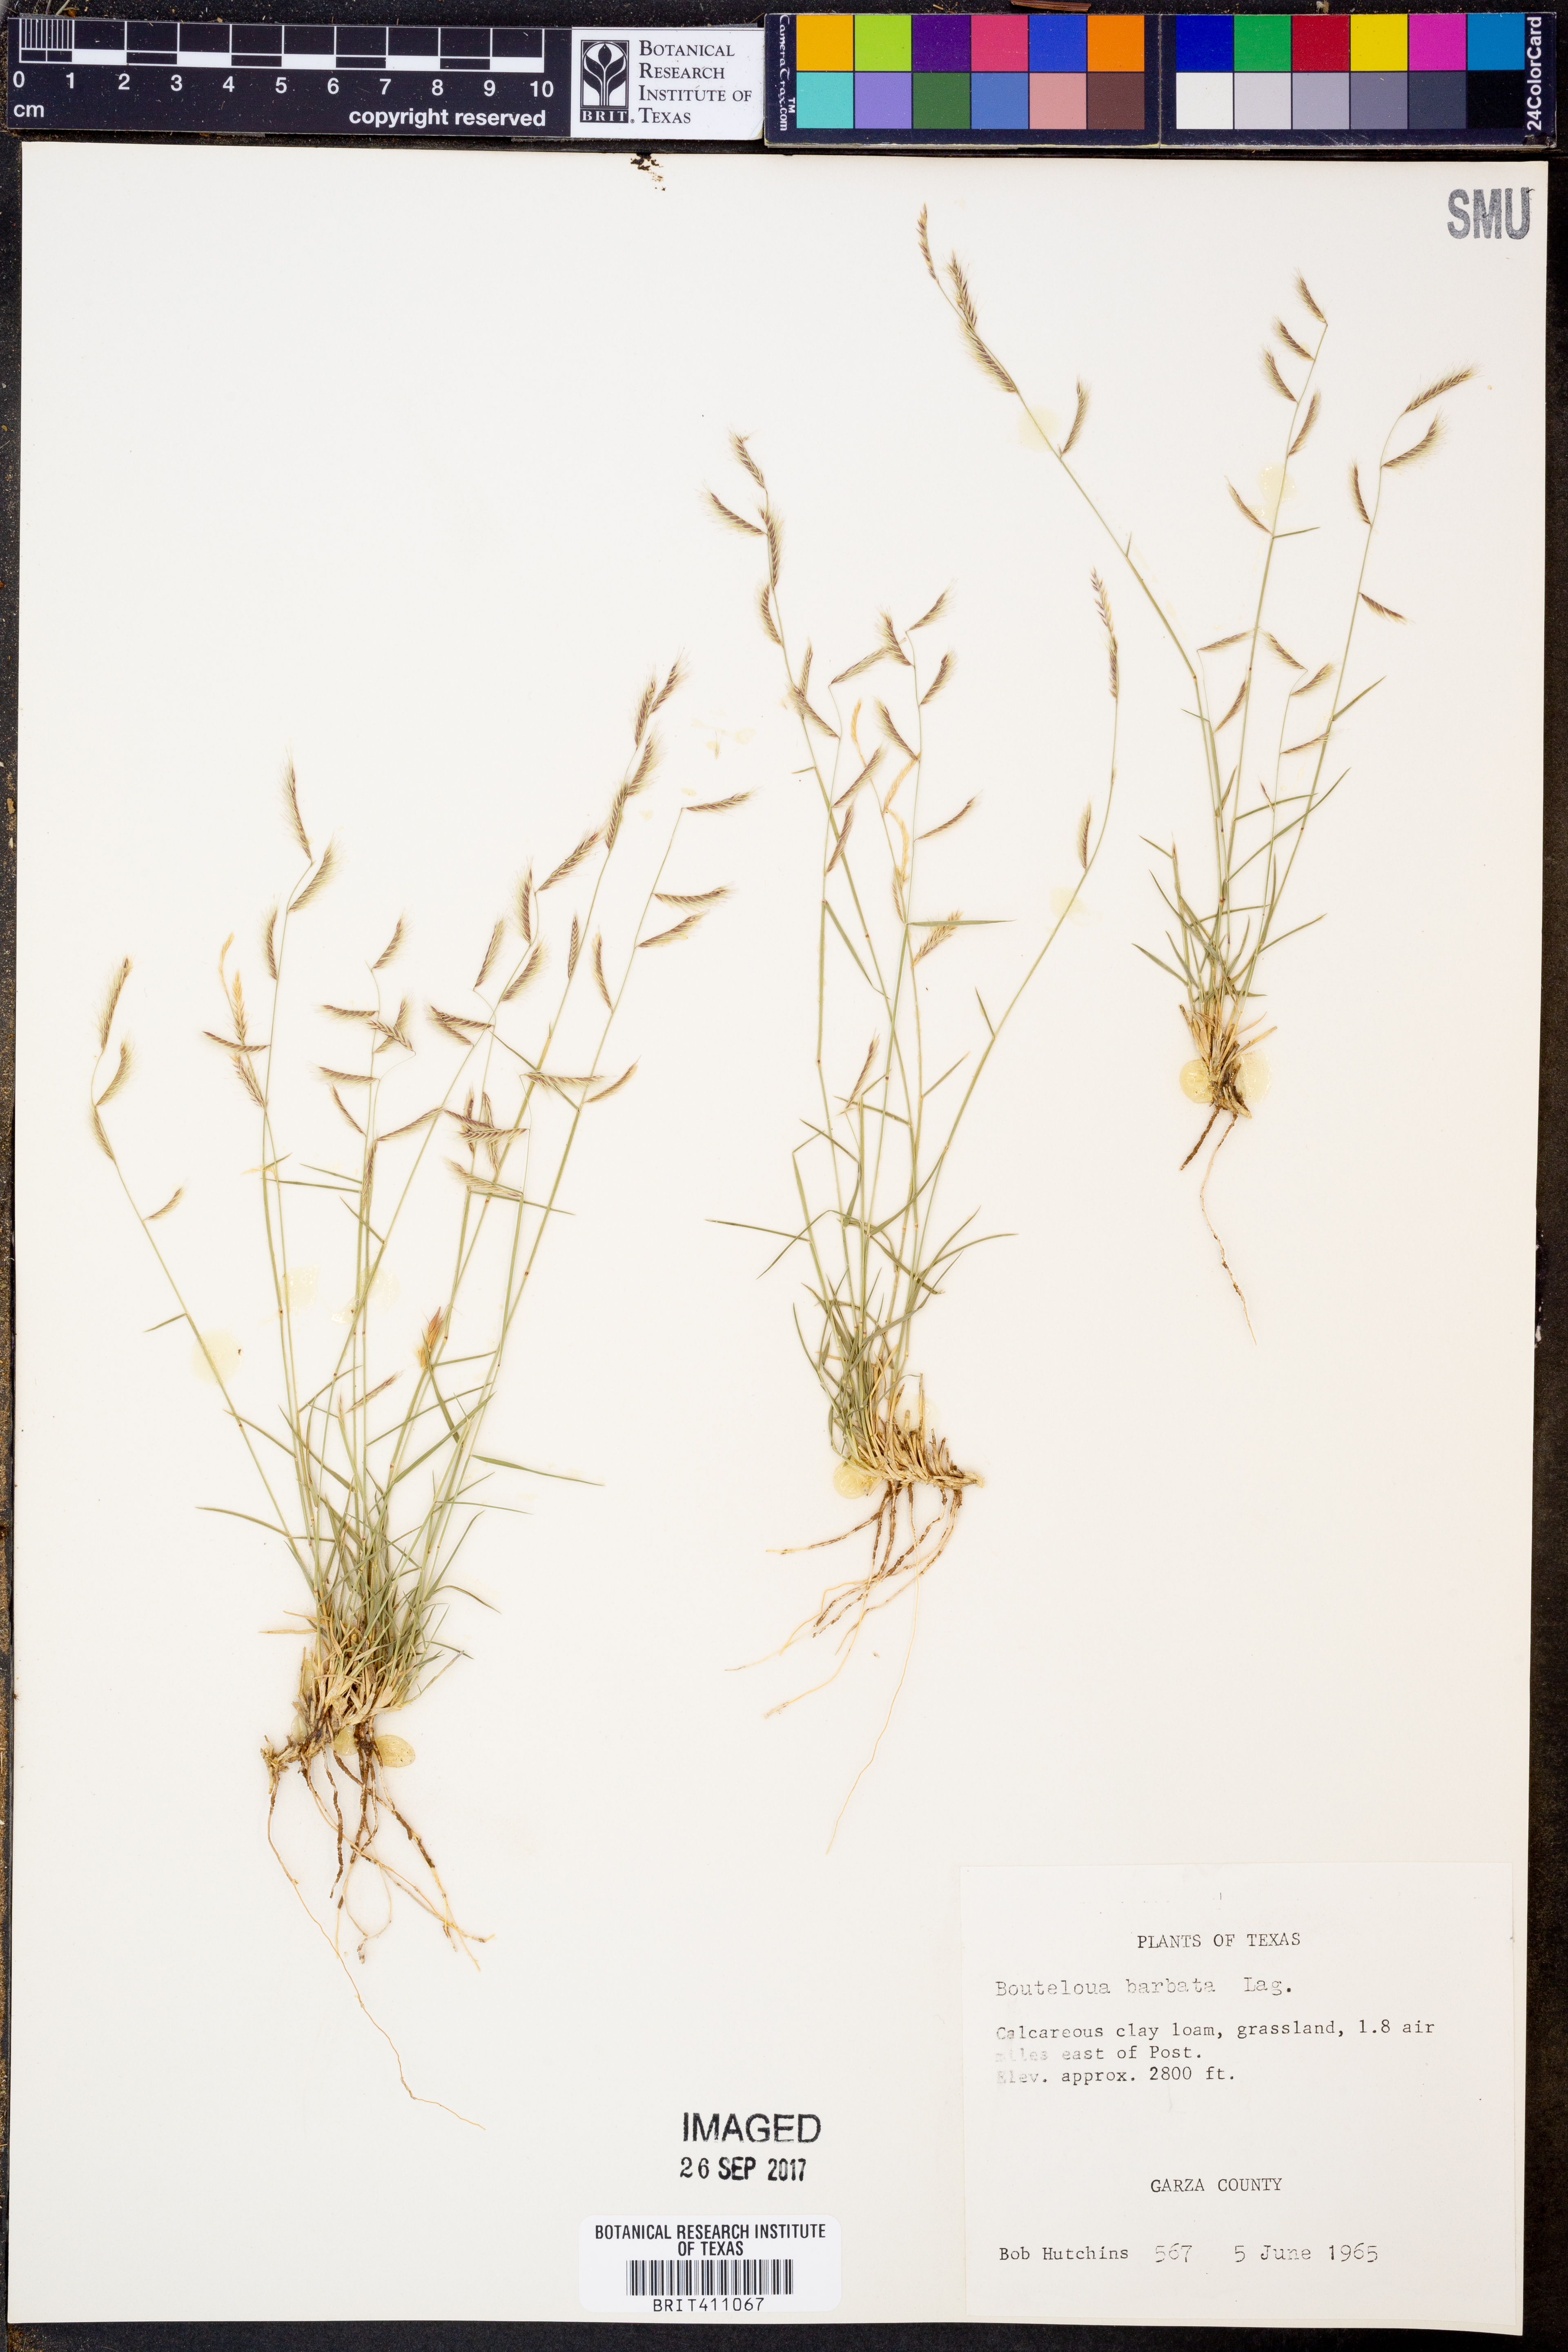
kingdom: Plantae
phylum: Tracheophyta
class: Liliopsida
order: Poales
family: Poaceae
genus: Bouteloua
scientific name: Bouteloua barbata
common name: Six-weeks grama
